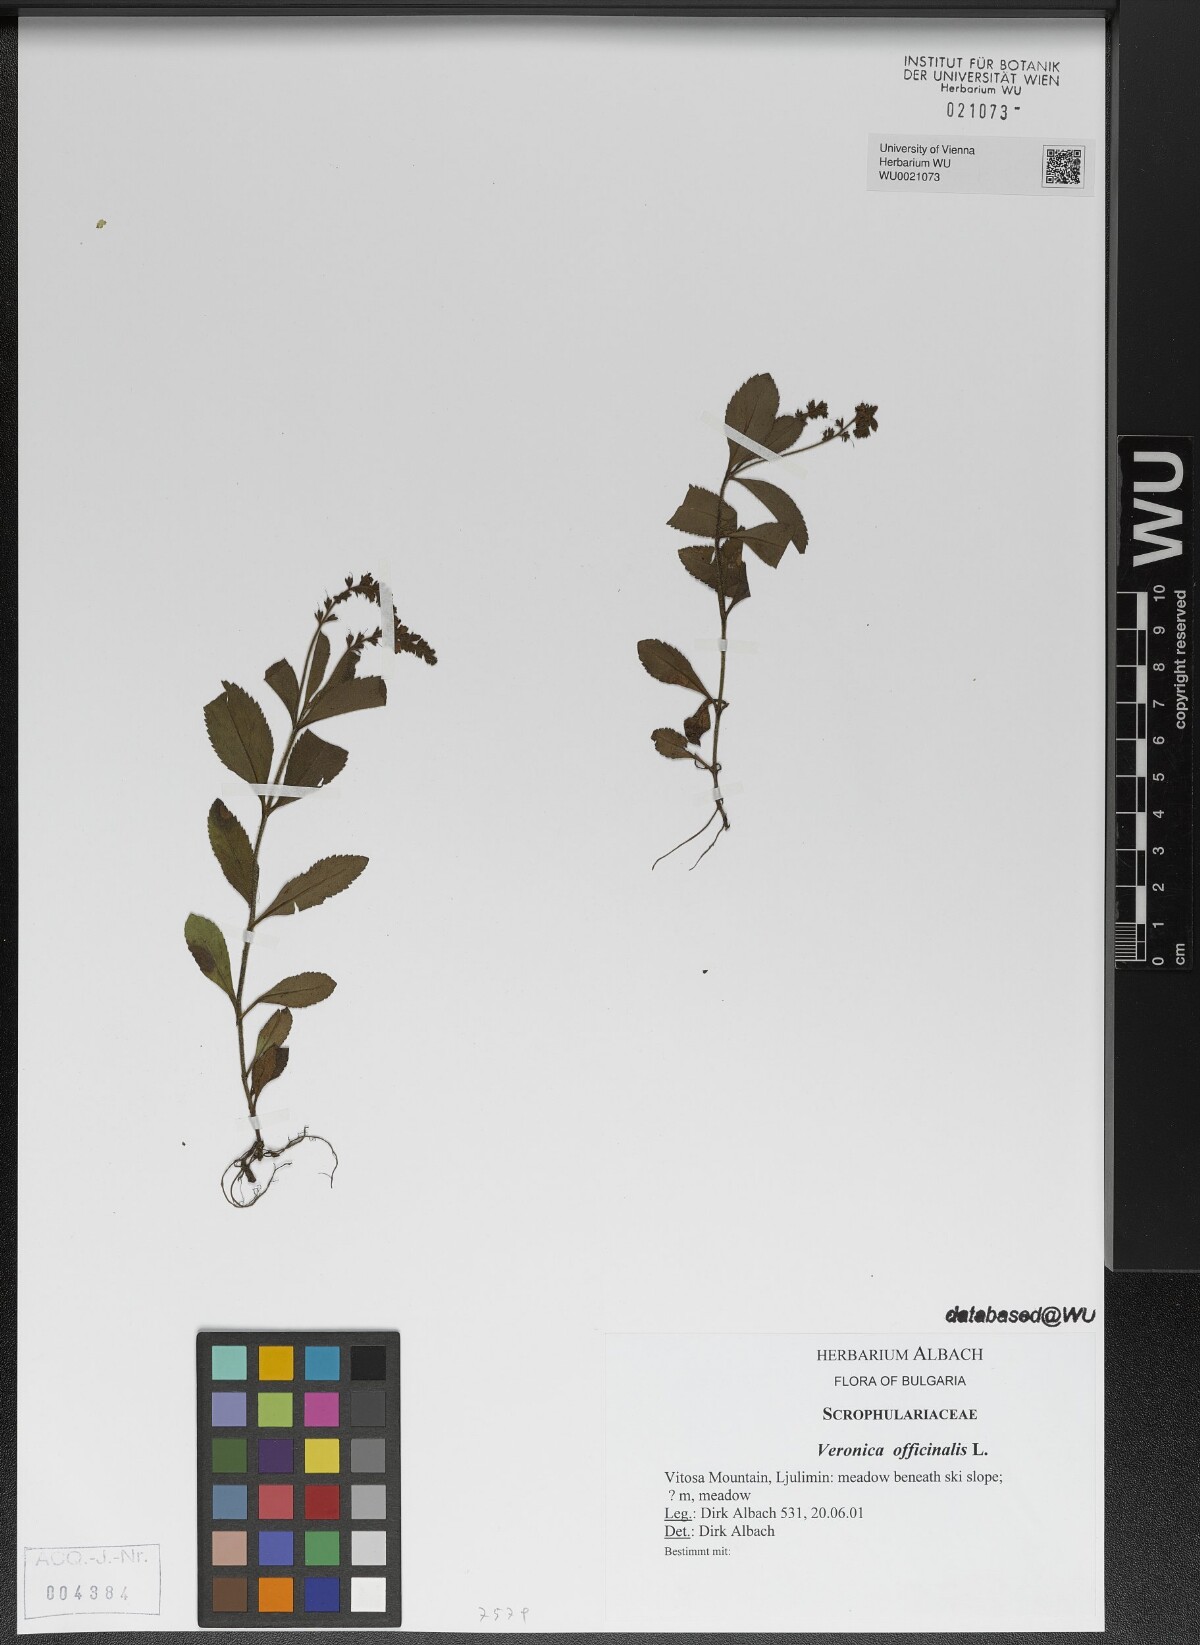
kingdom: Plantae
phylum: Tracheophyta
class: Magnoliopsida
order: Lamiales
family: Plantaginaceae
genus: Veronica
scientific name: Veronica officinalis
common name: Common speedwell
